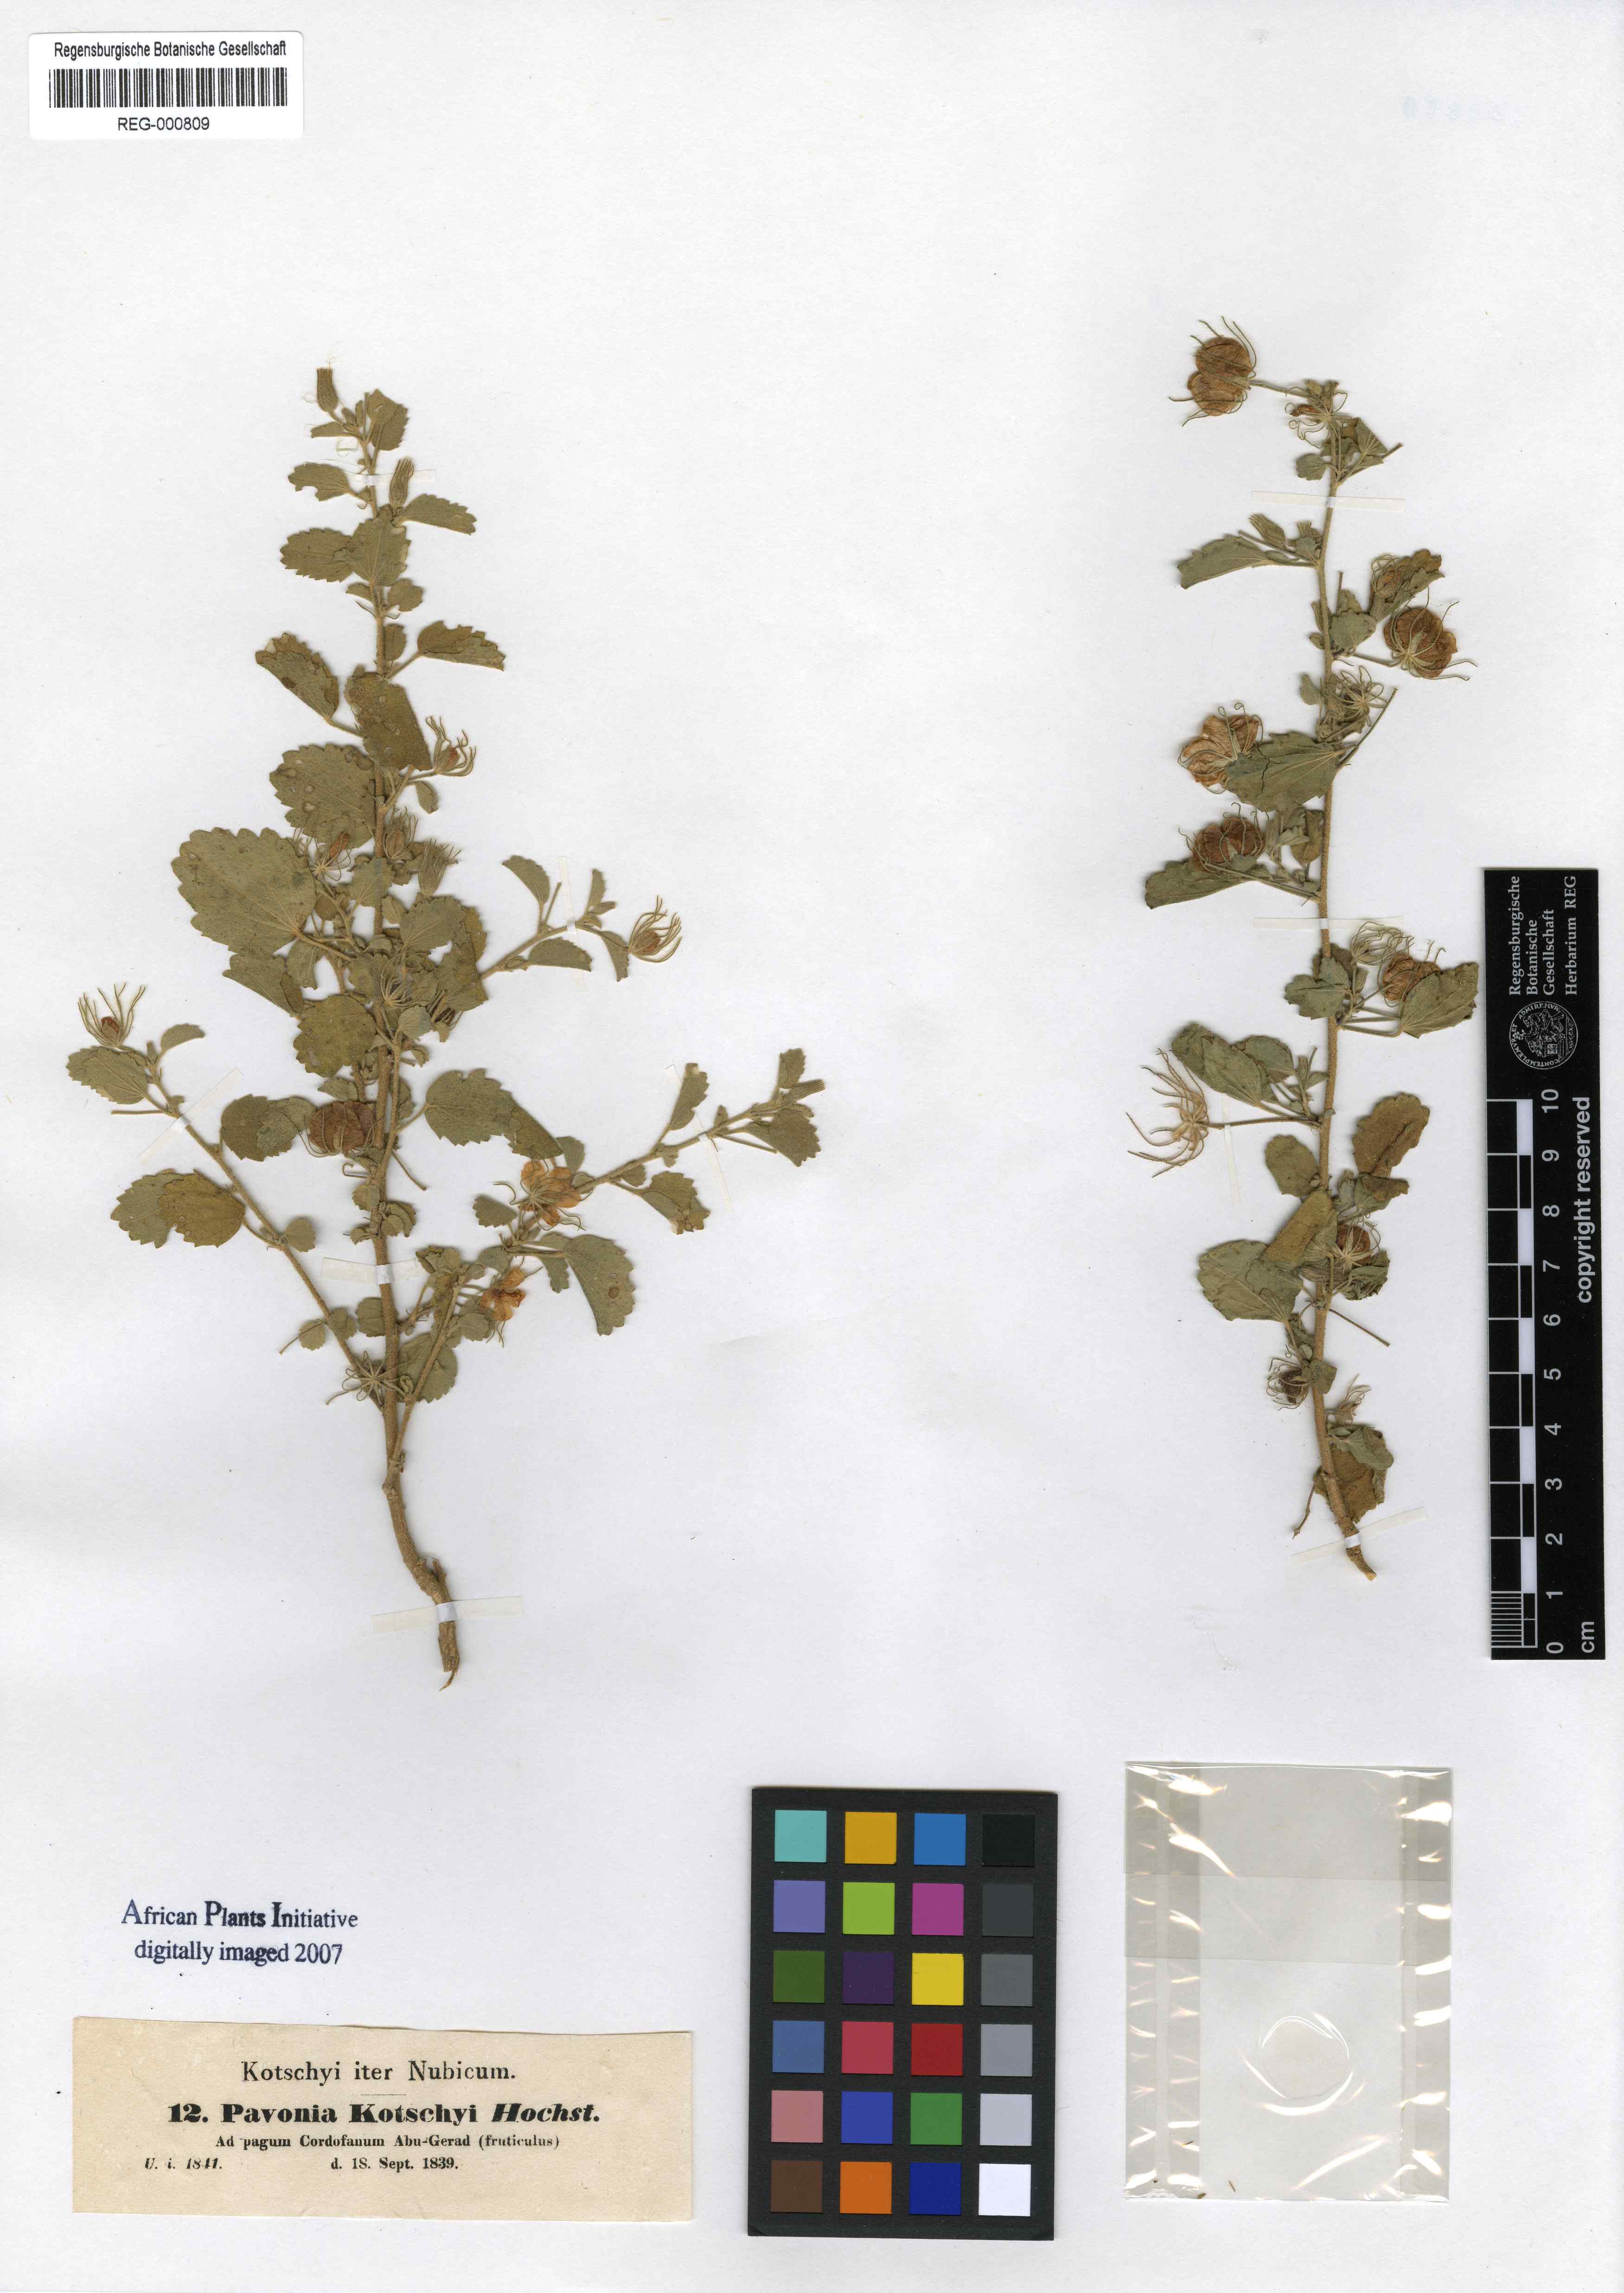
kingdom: Plantae
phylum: Tracheophyta
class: Magnoliopsida
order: Malvales
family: Malvaceae
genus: Pavonia
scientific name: Pavonia kotschyi
